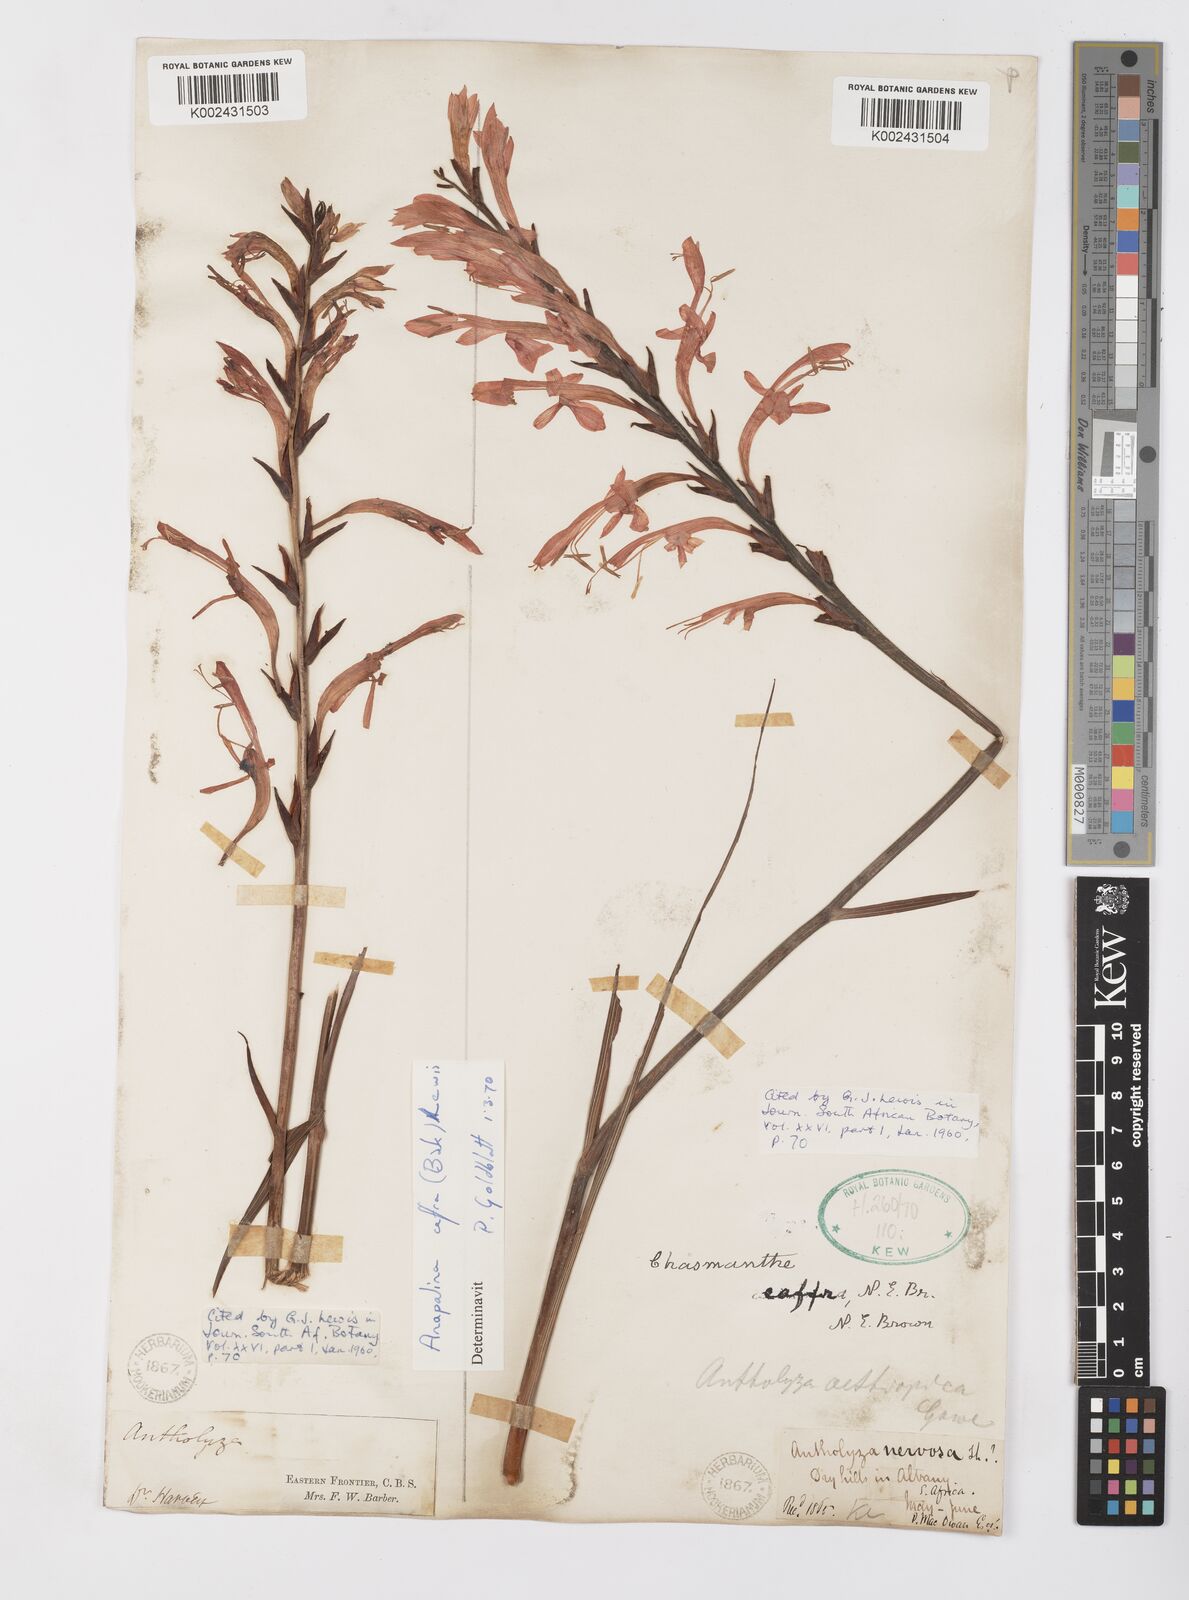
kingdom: Plantae
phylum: Tracheophyta
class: Liliopsida
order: Asparagales
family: Iridaceae
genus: Tritoniopsis
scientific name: Tritoniopsis caffra
